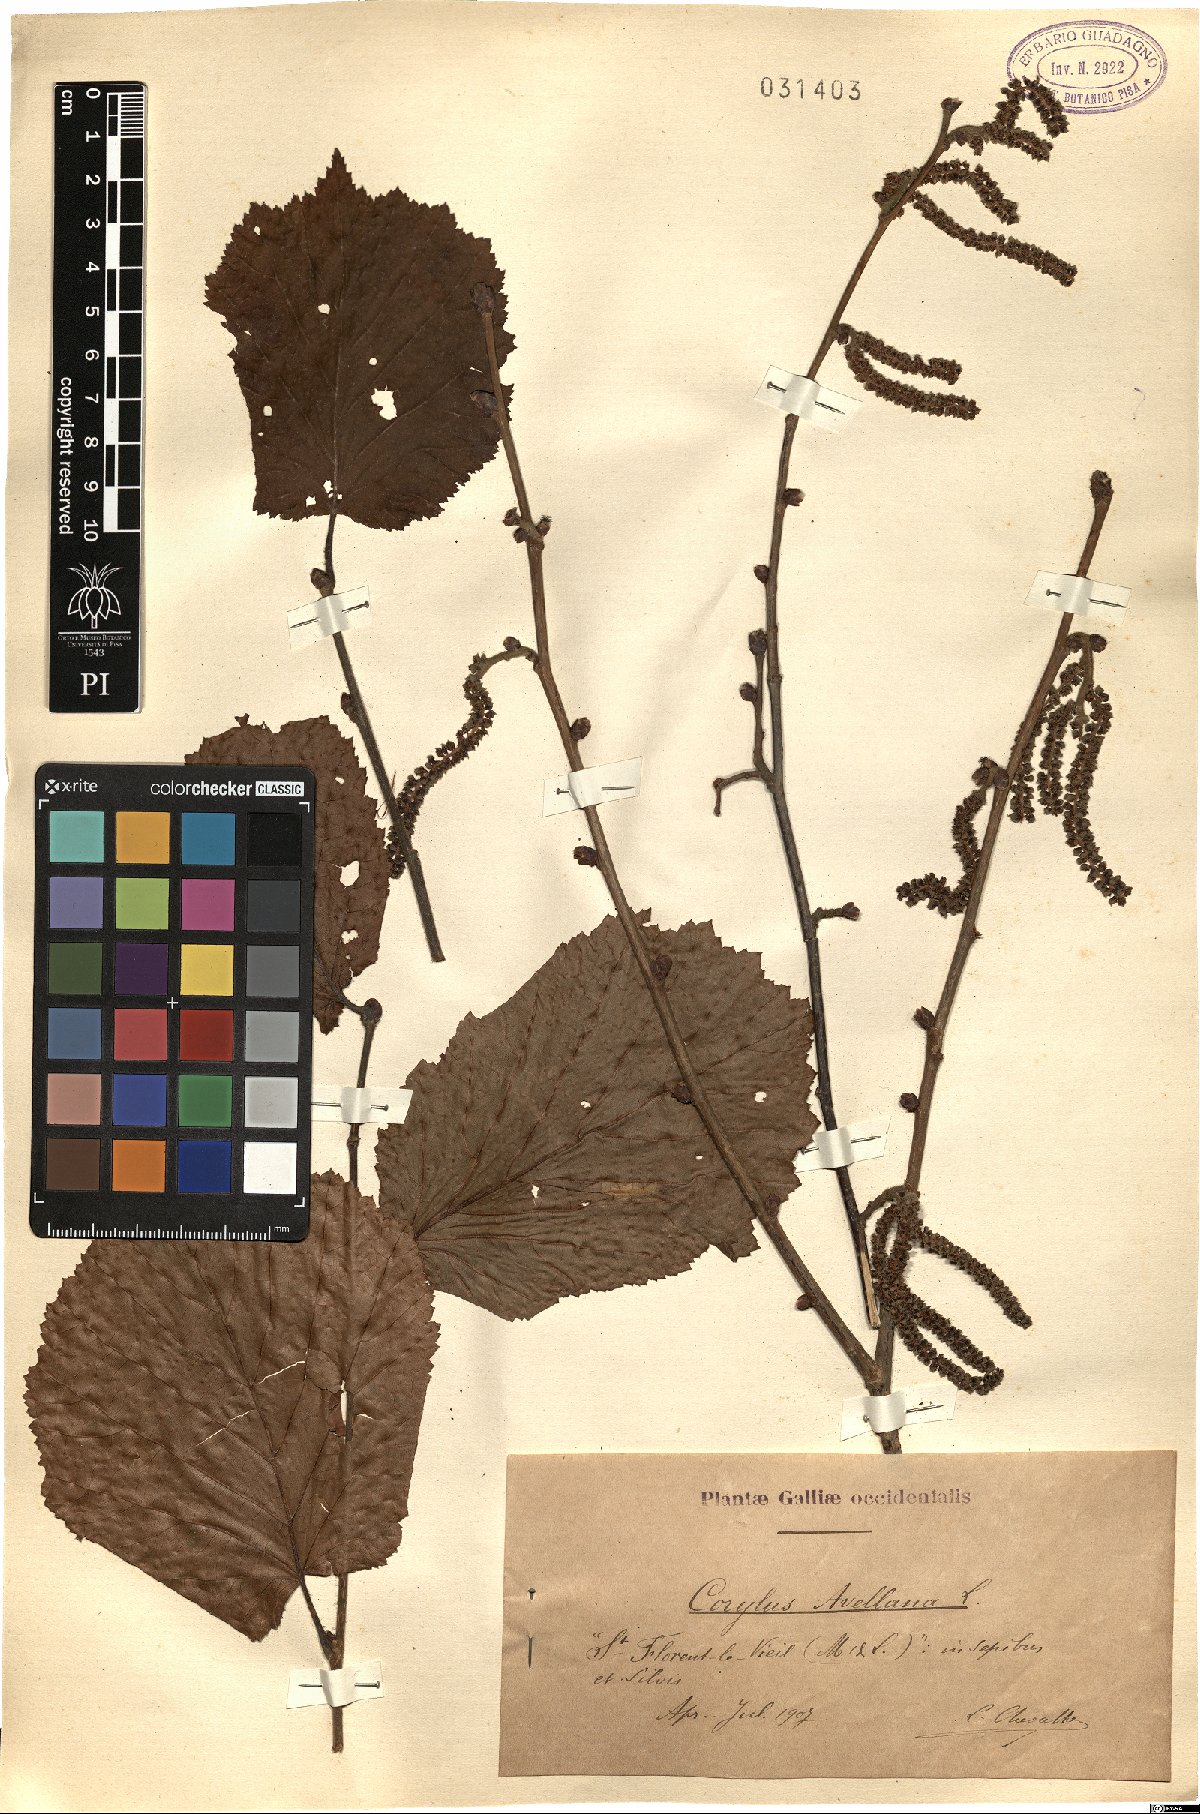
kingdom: Plantae
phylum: Tracheophyta
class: Magnoliopsida
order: Fagales
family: Betulaceae
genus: Corylus
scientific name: Corylus avellana
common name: European hazel
